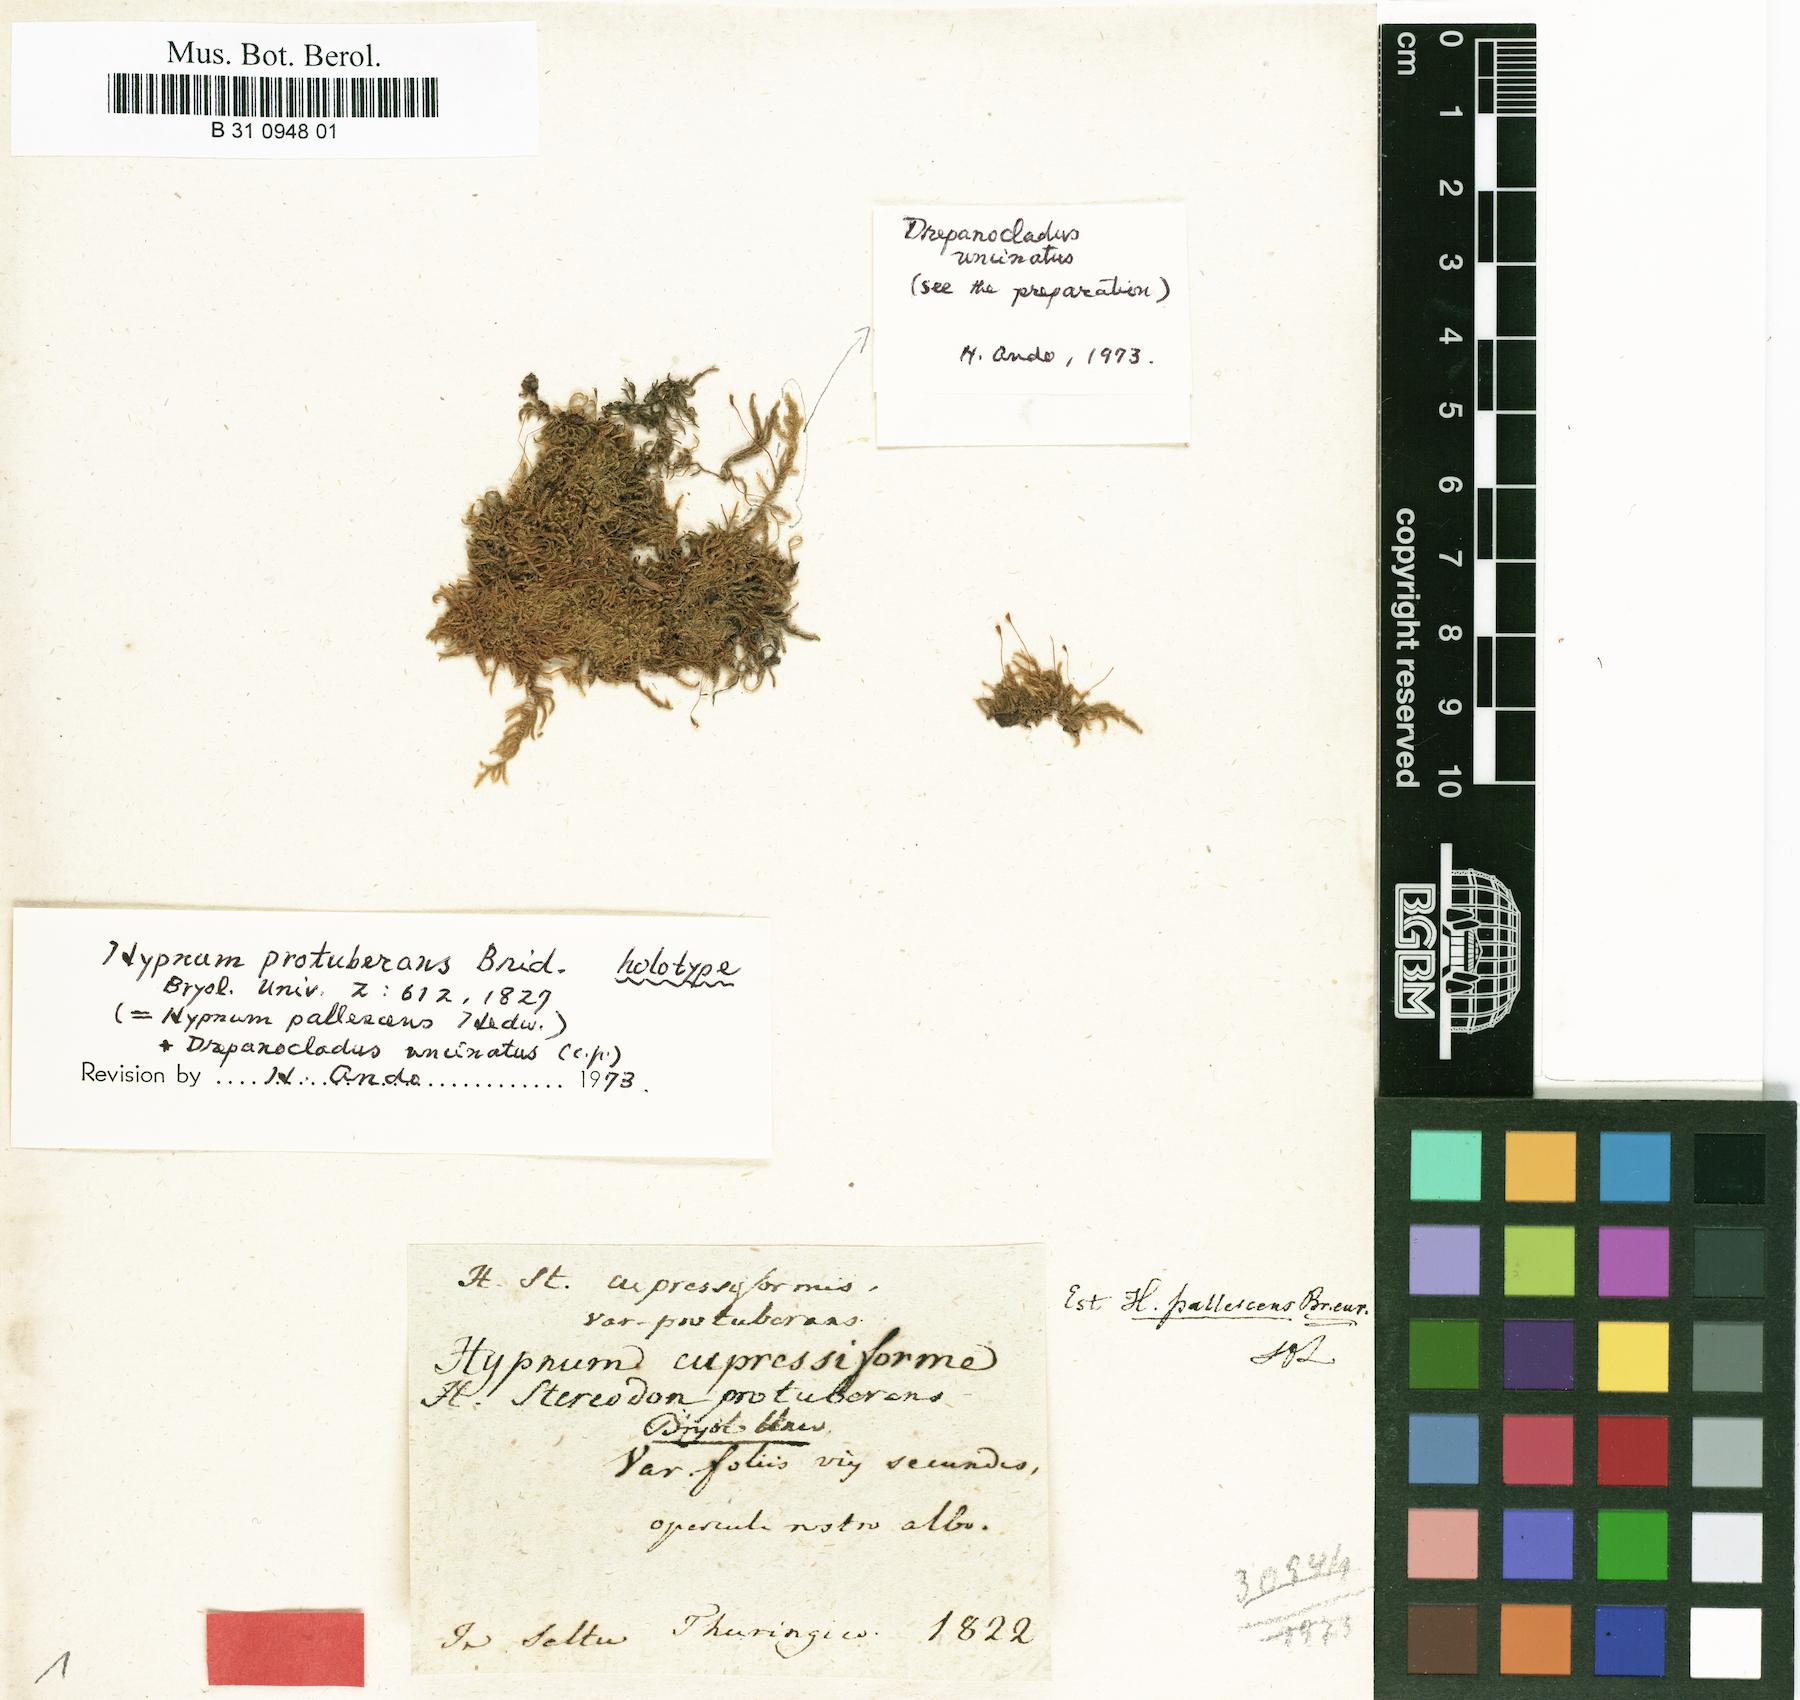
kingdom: Plantae
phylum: Bryophyta
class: Bryopsida
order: Hypnales
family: Jocheniaceae
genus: Jochenia
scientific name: Jochenia protuberans
